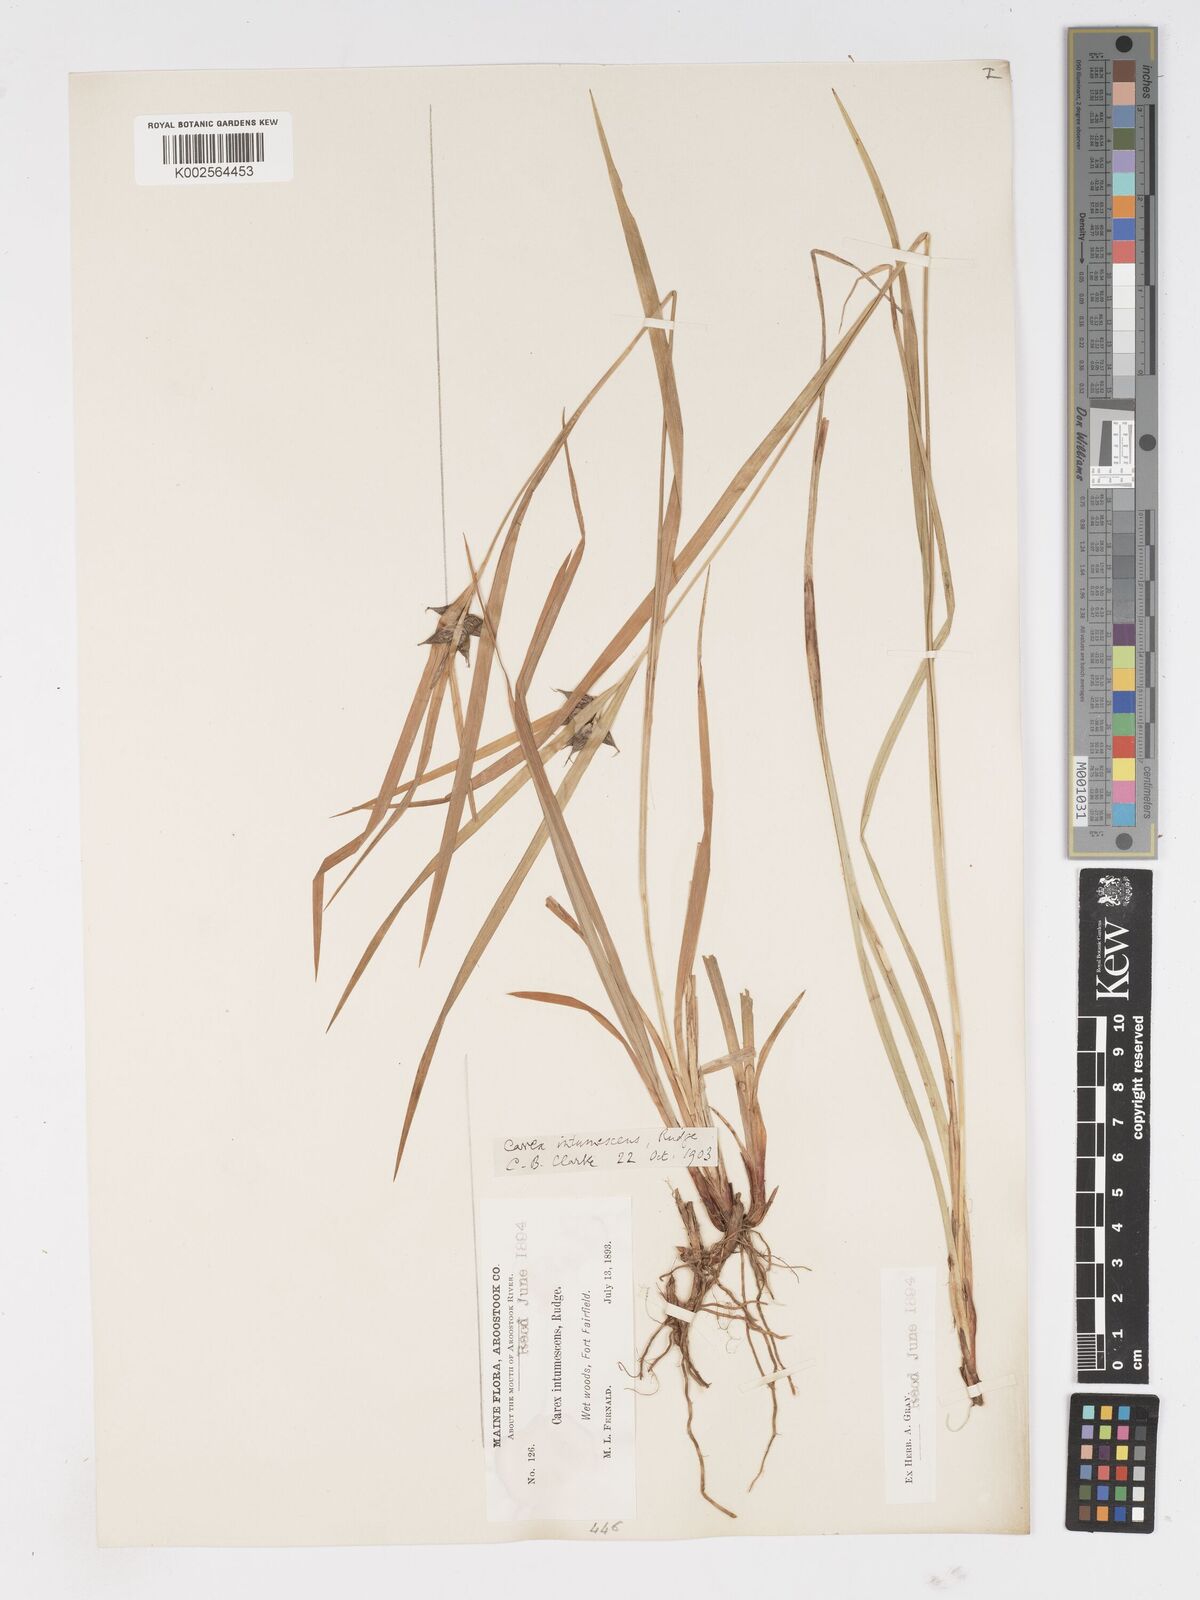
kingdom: Plantae
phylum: Tracheophyta
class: Liliopsida
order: Poales
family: Cyperaceae
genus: Carex
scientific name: Carex intumescens
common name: Greater bladder sedge
